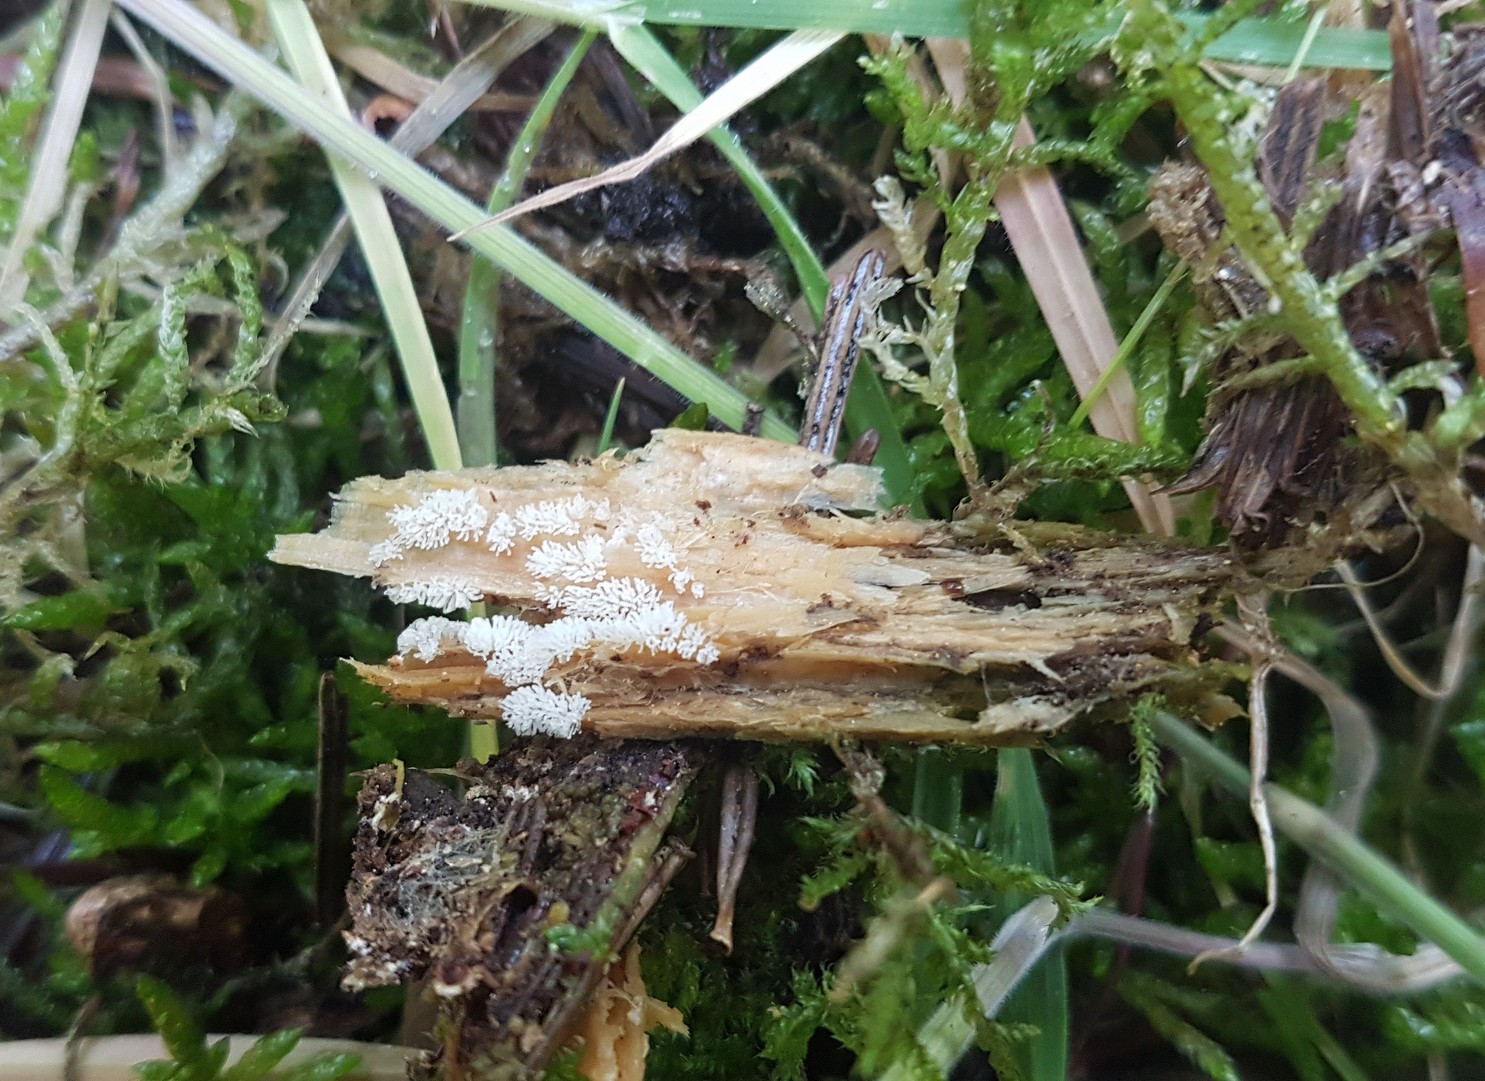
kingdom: Protozoa
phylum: Mycetozoa
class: Protosteliomycetes
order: Ceratiomyxales
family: Ceratiomyxaceae
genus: Ceratiomyxa
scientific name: Ceratiomyxa fruticulosa
